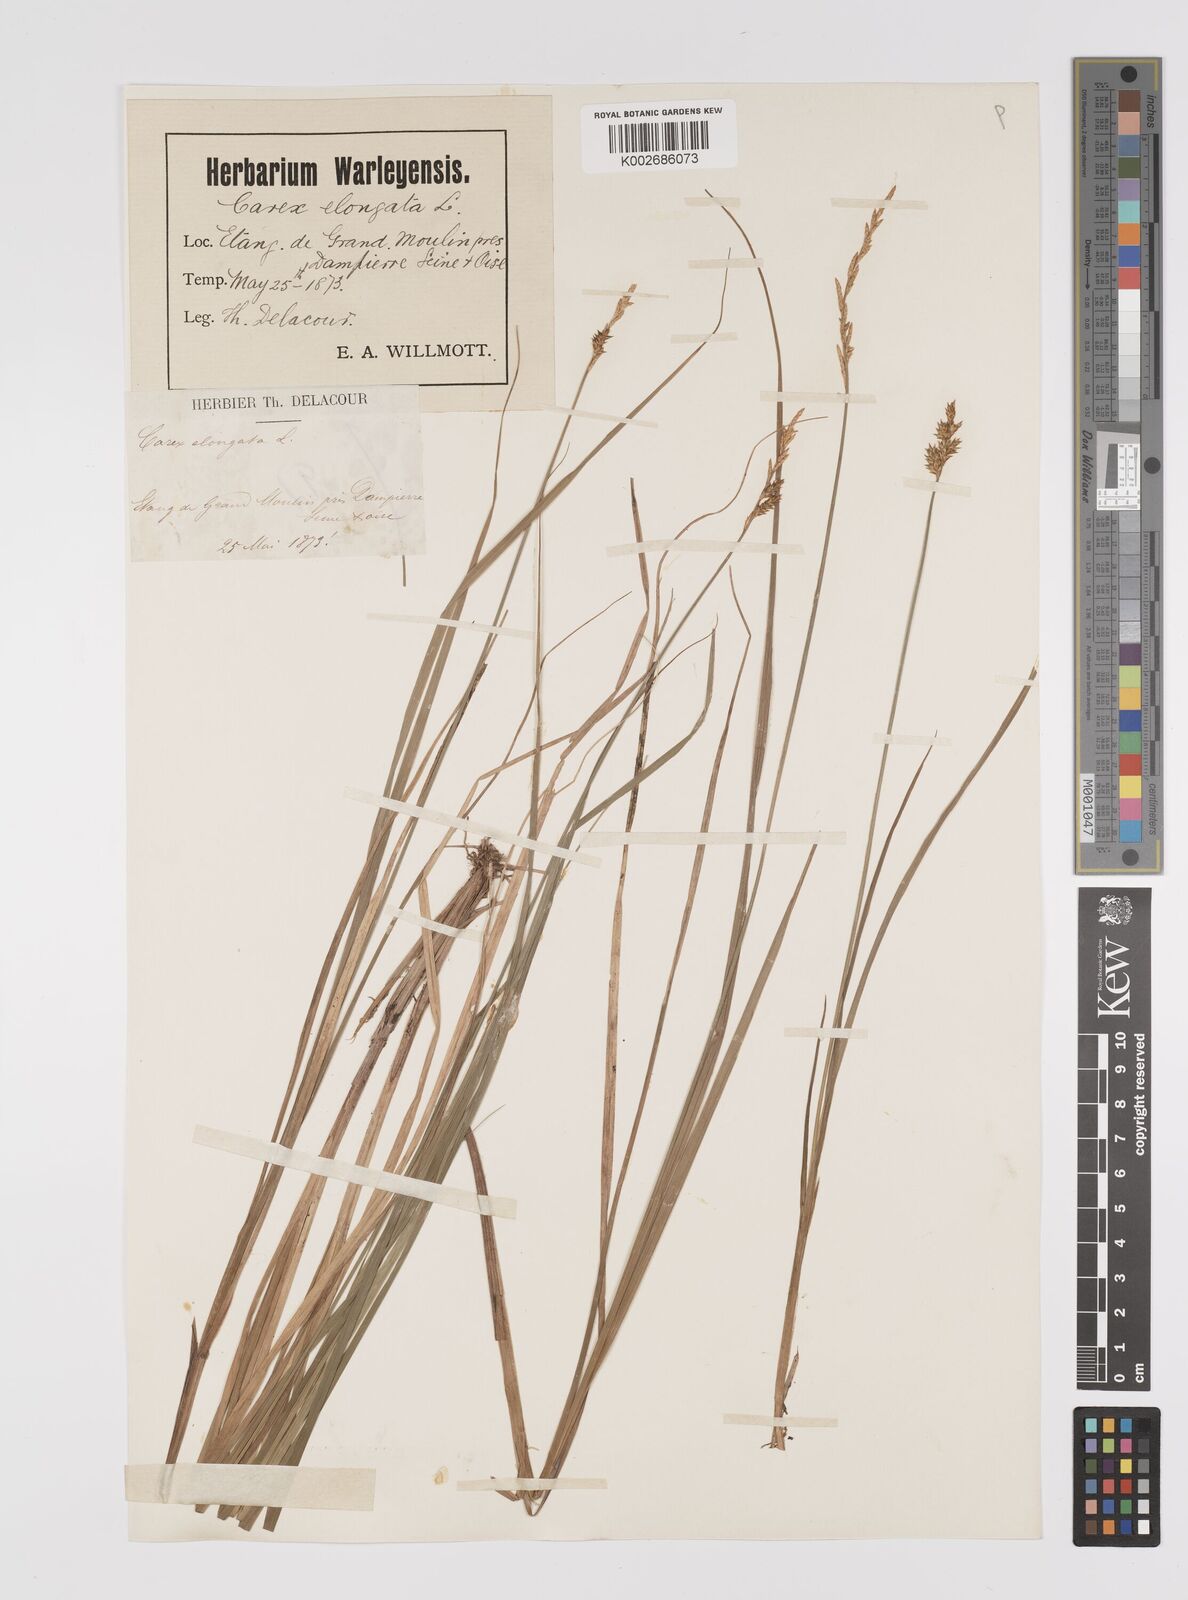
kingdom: Plantae
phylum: Tracheophyta
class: Liliopsida
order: Poales
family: Cyperaceae
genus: Carex
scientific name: Carex elongata
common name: Elongated sedge
